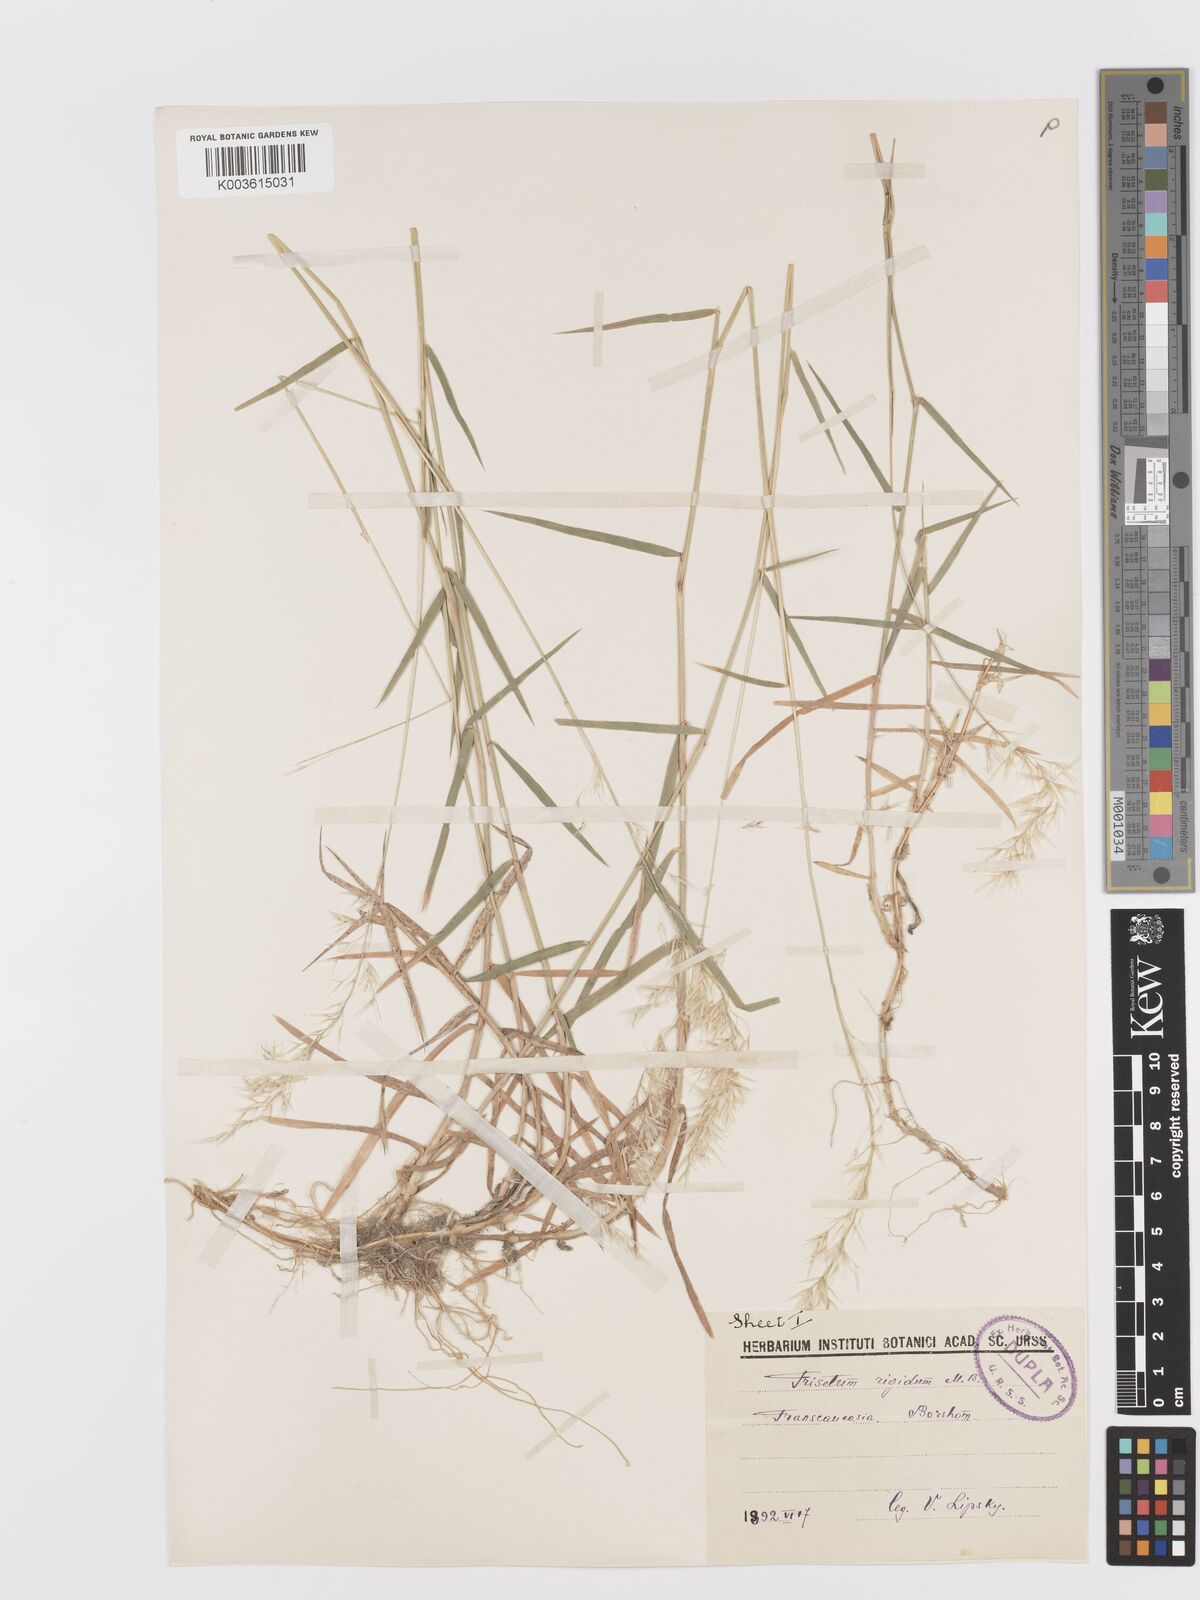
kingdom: Plantae
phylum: Tracheophyta
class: Liliopsida
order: Poales
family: Poaceae
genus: Trisetum
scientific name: Trisetum rigidum
